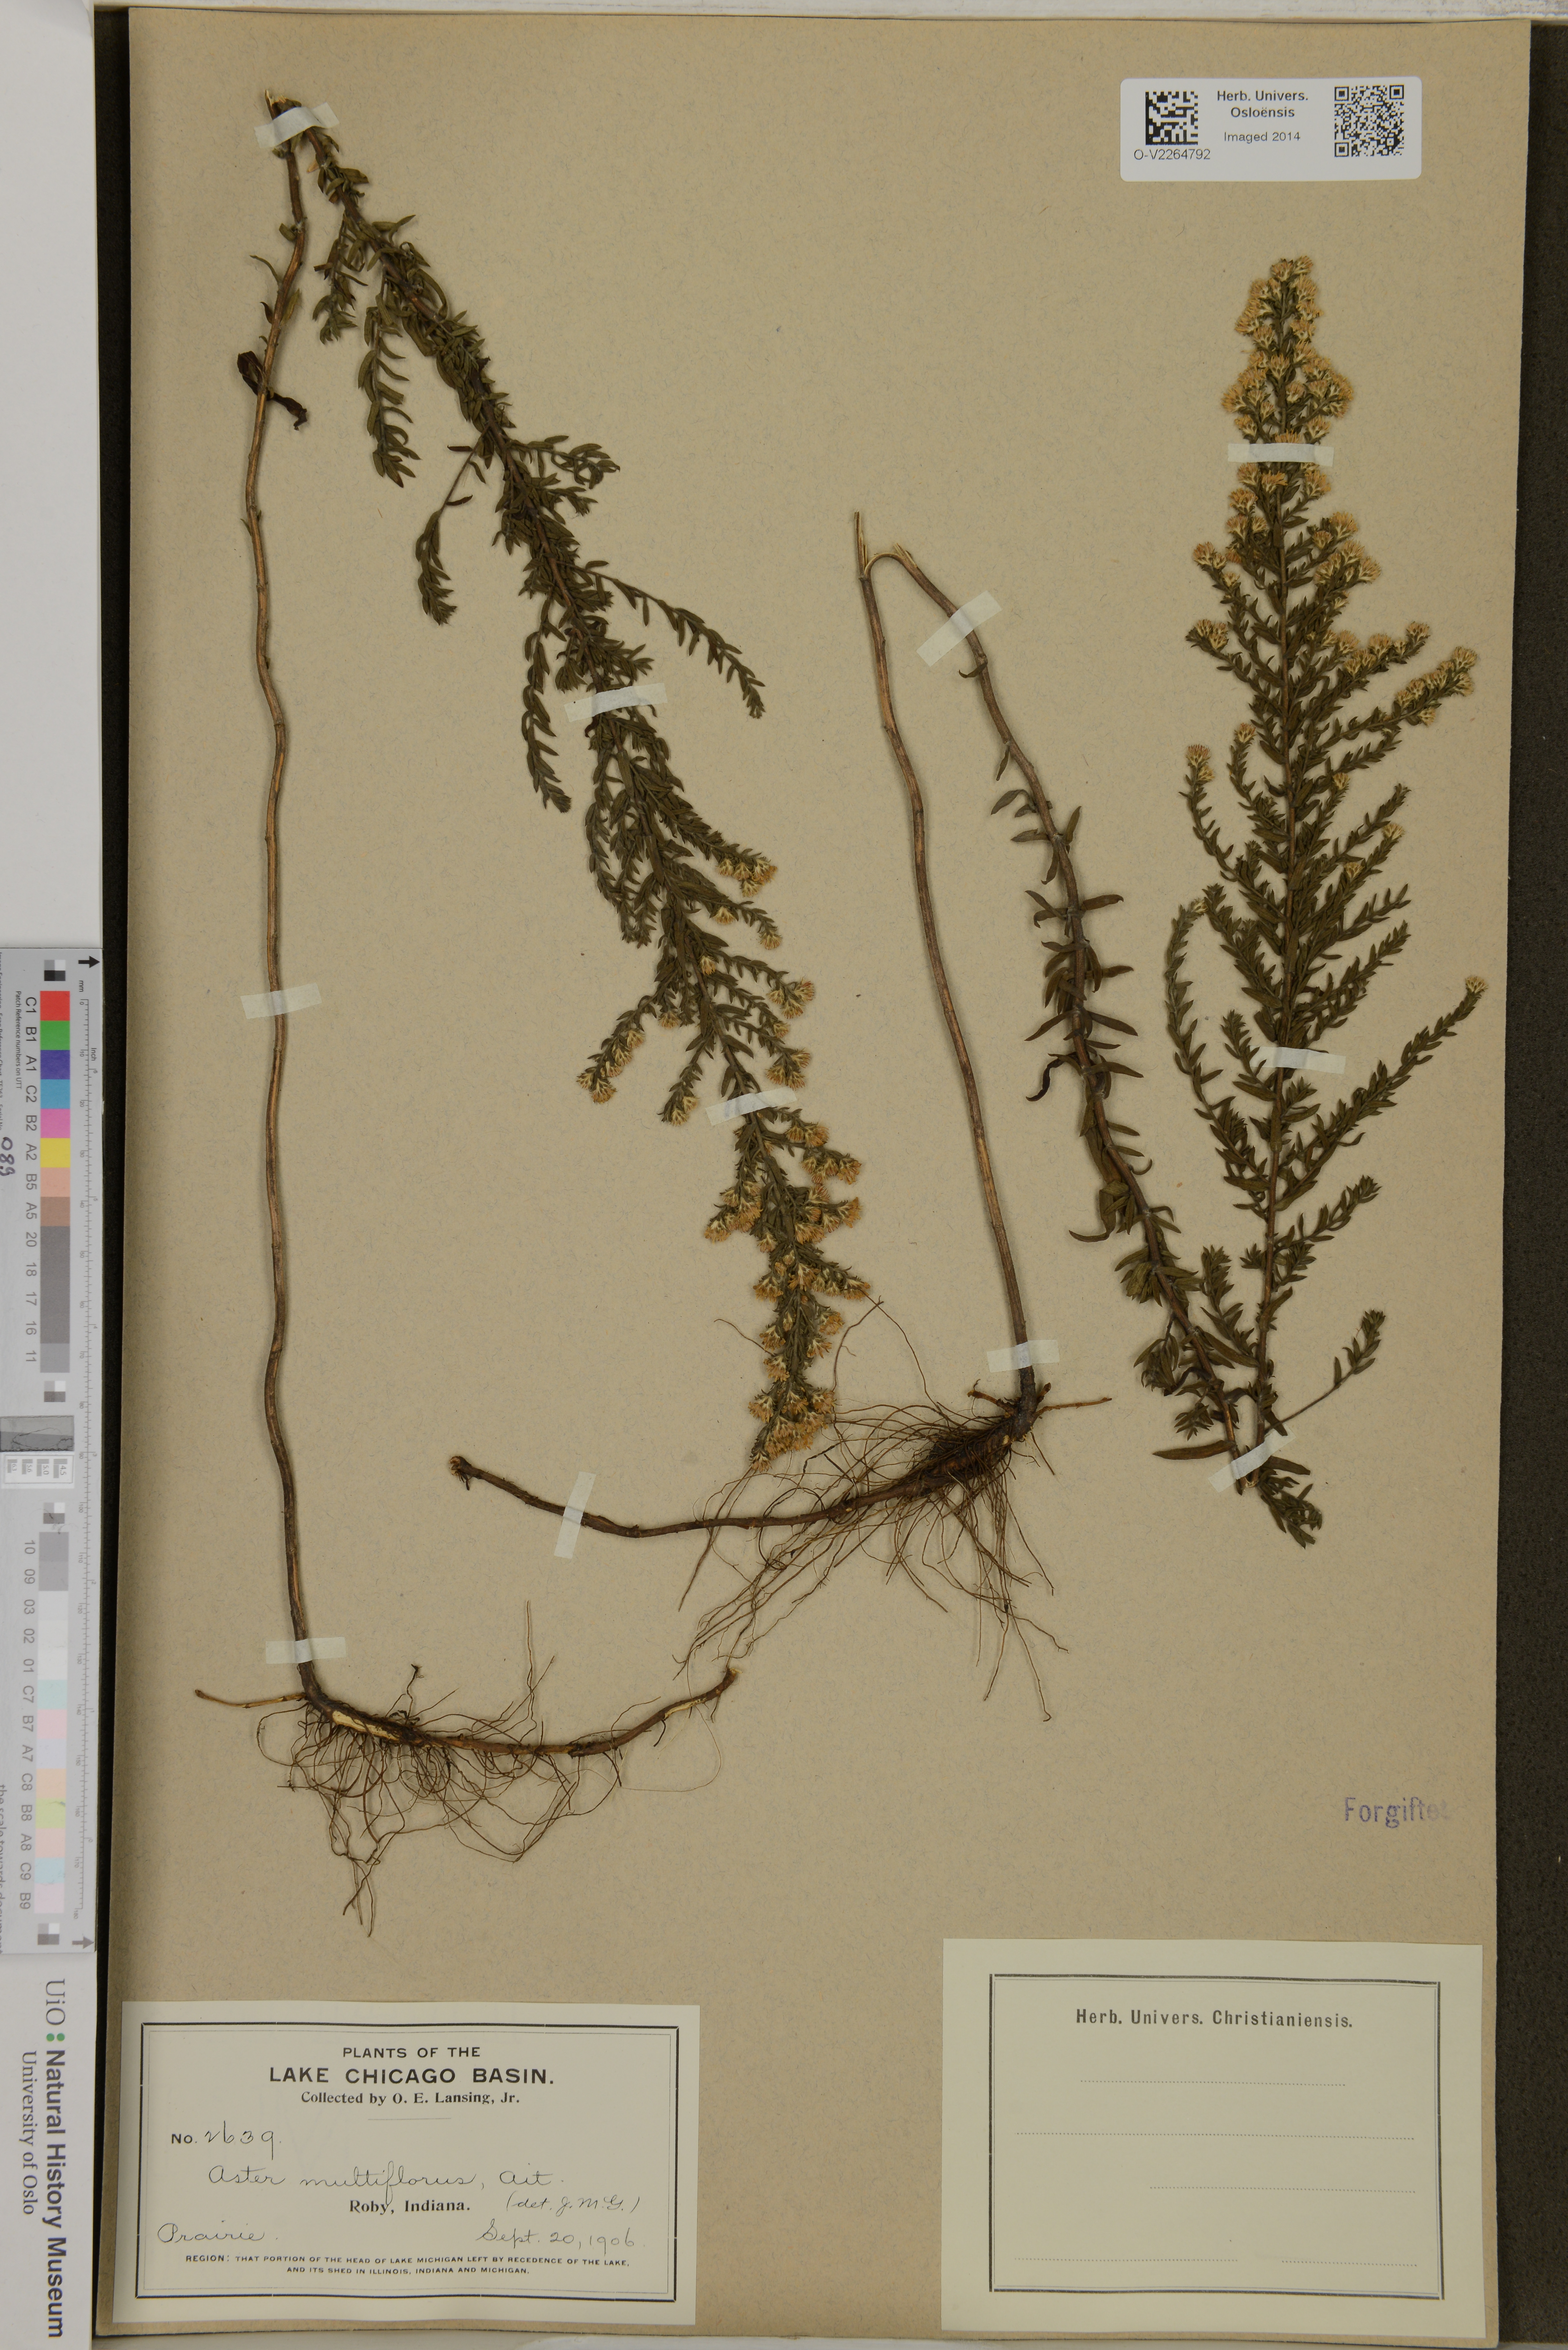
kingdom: Plantae
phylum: Tracheophyta
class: Magnoliopsida
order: Asterales
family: Asteraceae
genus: Aster
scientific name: Aster multiflorus
